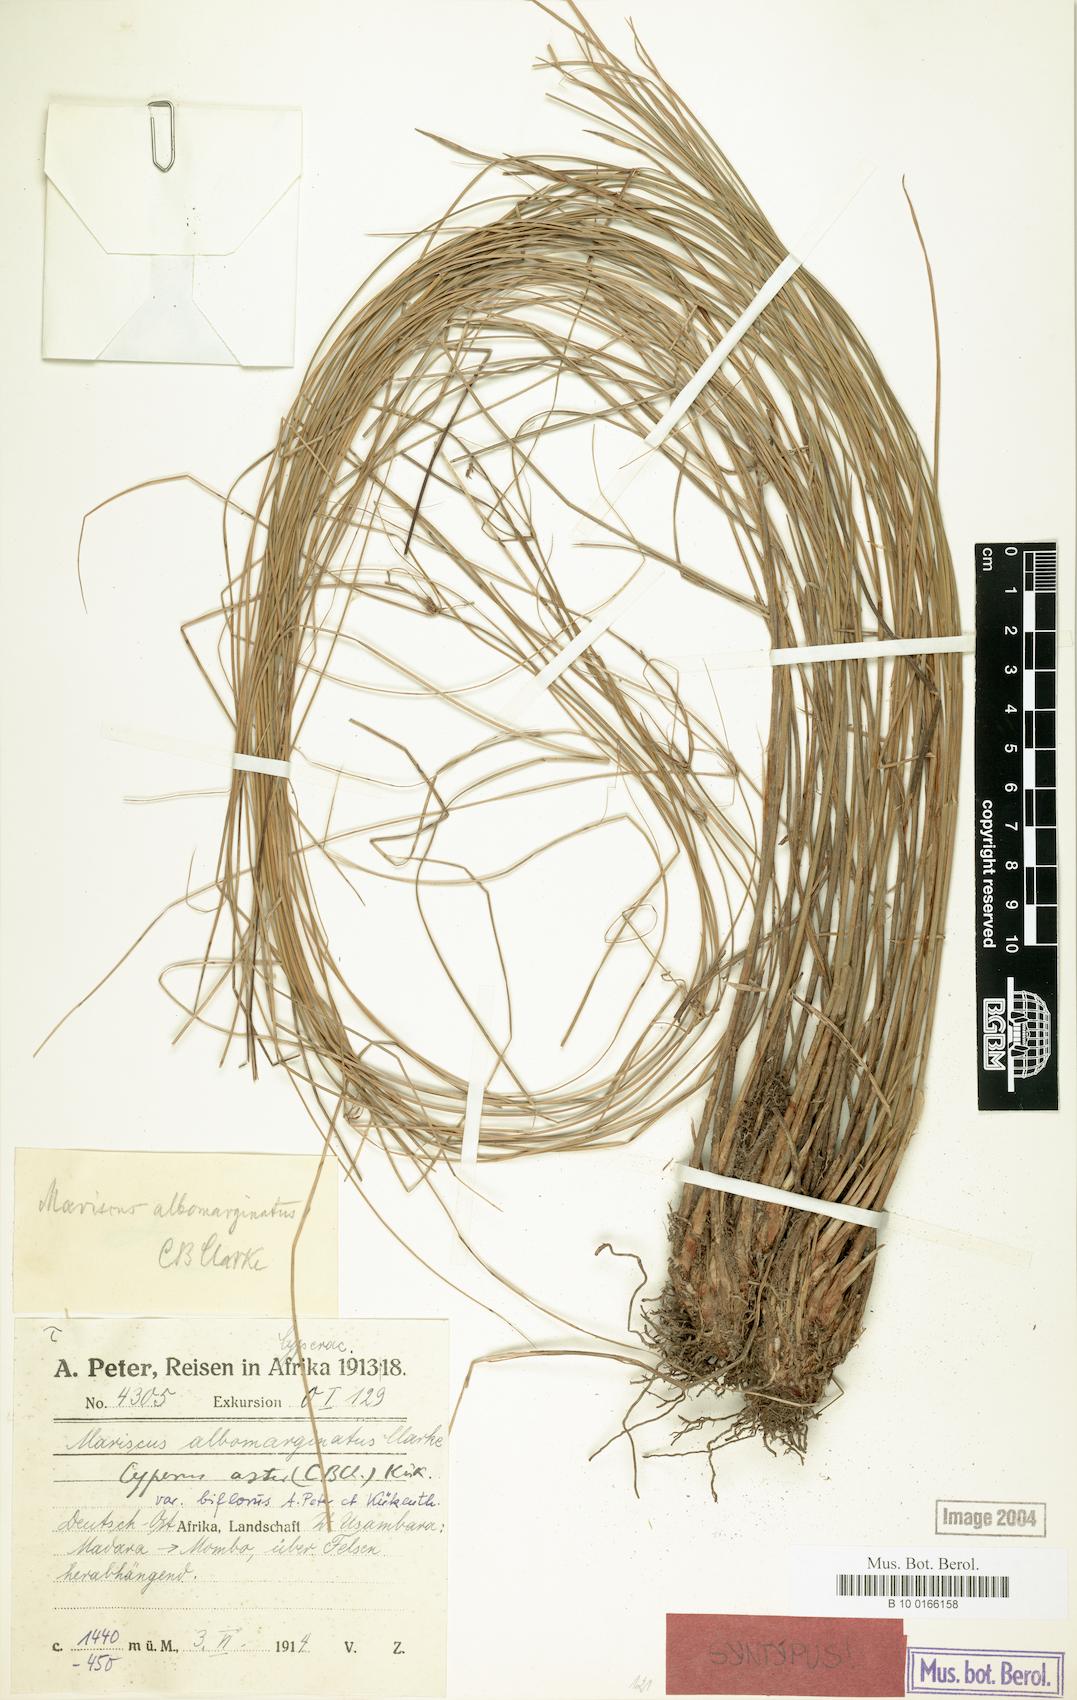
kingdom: Plantae
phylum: Tracheophyta
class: Liliopsida
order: Poales
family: Cyperaceae
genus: Cyperus
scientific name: Cyperus aster
